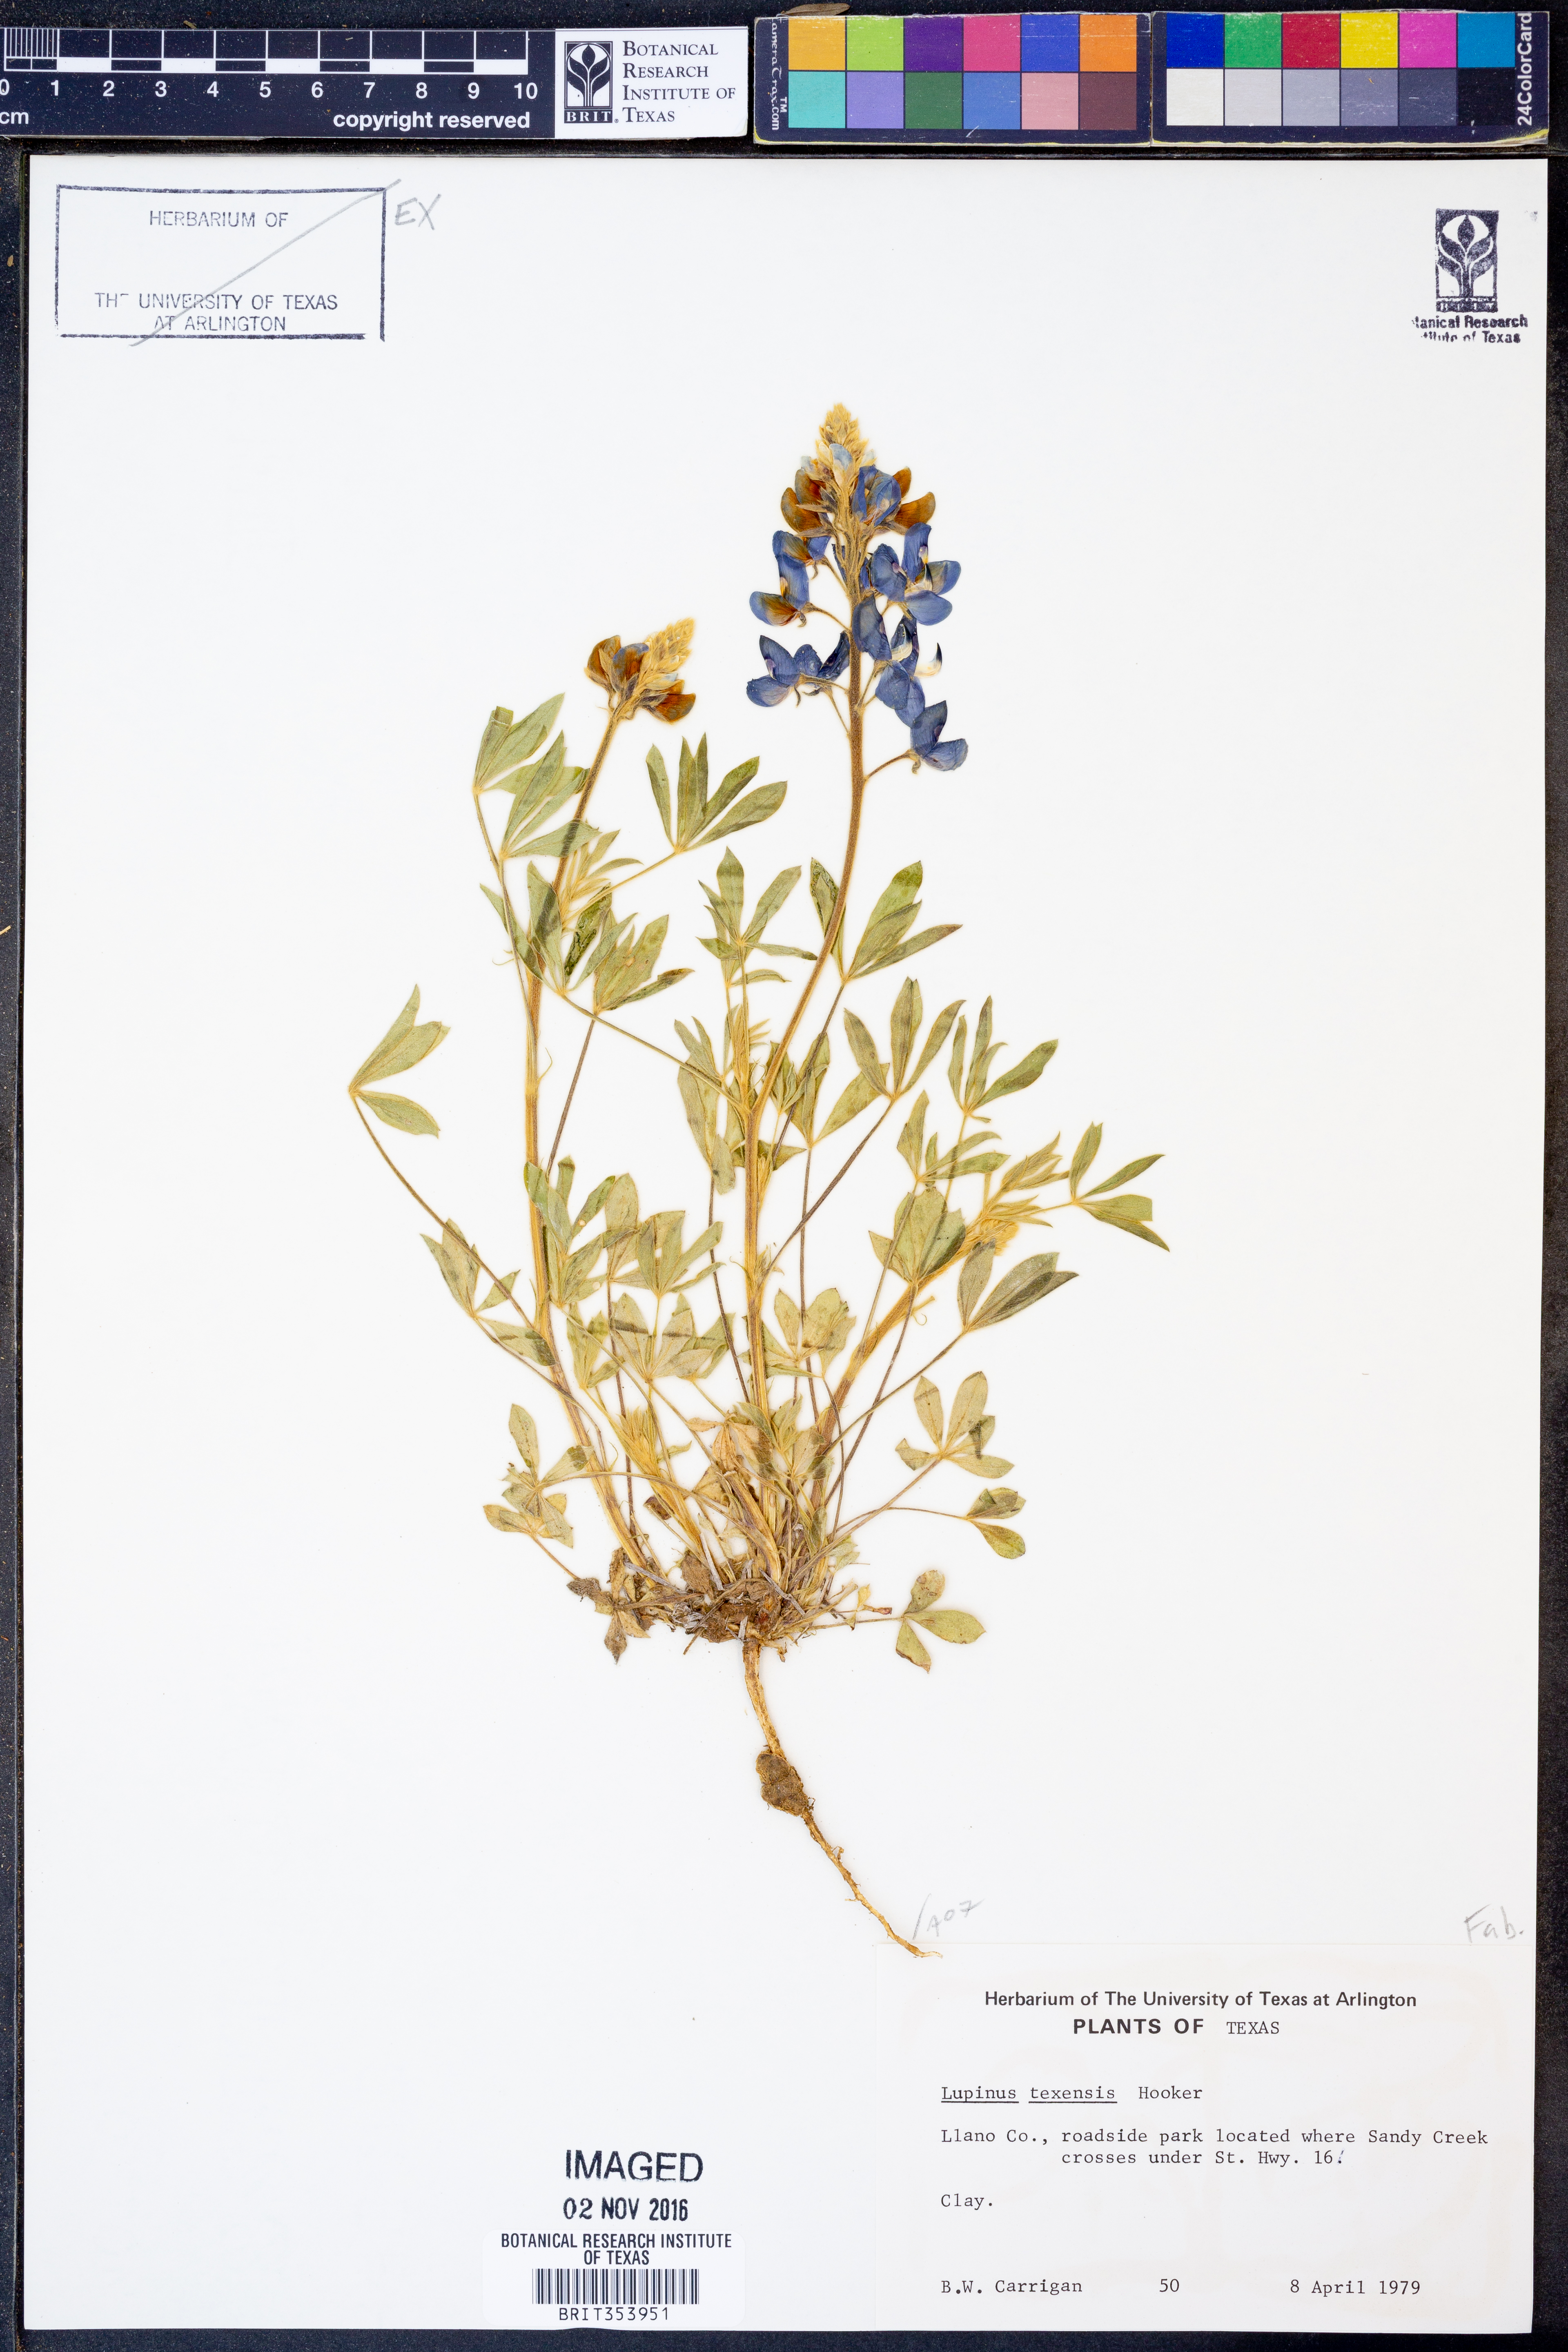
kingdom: Plantae
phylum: Tracheophyta
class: Magnoliopsida
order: Fabales
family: Fabaceae
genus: Lupinus
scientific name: Lupinus texensis
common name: Texas bluebonnet
